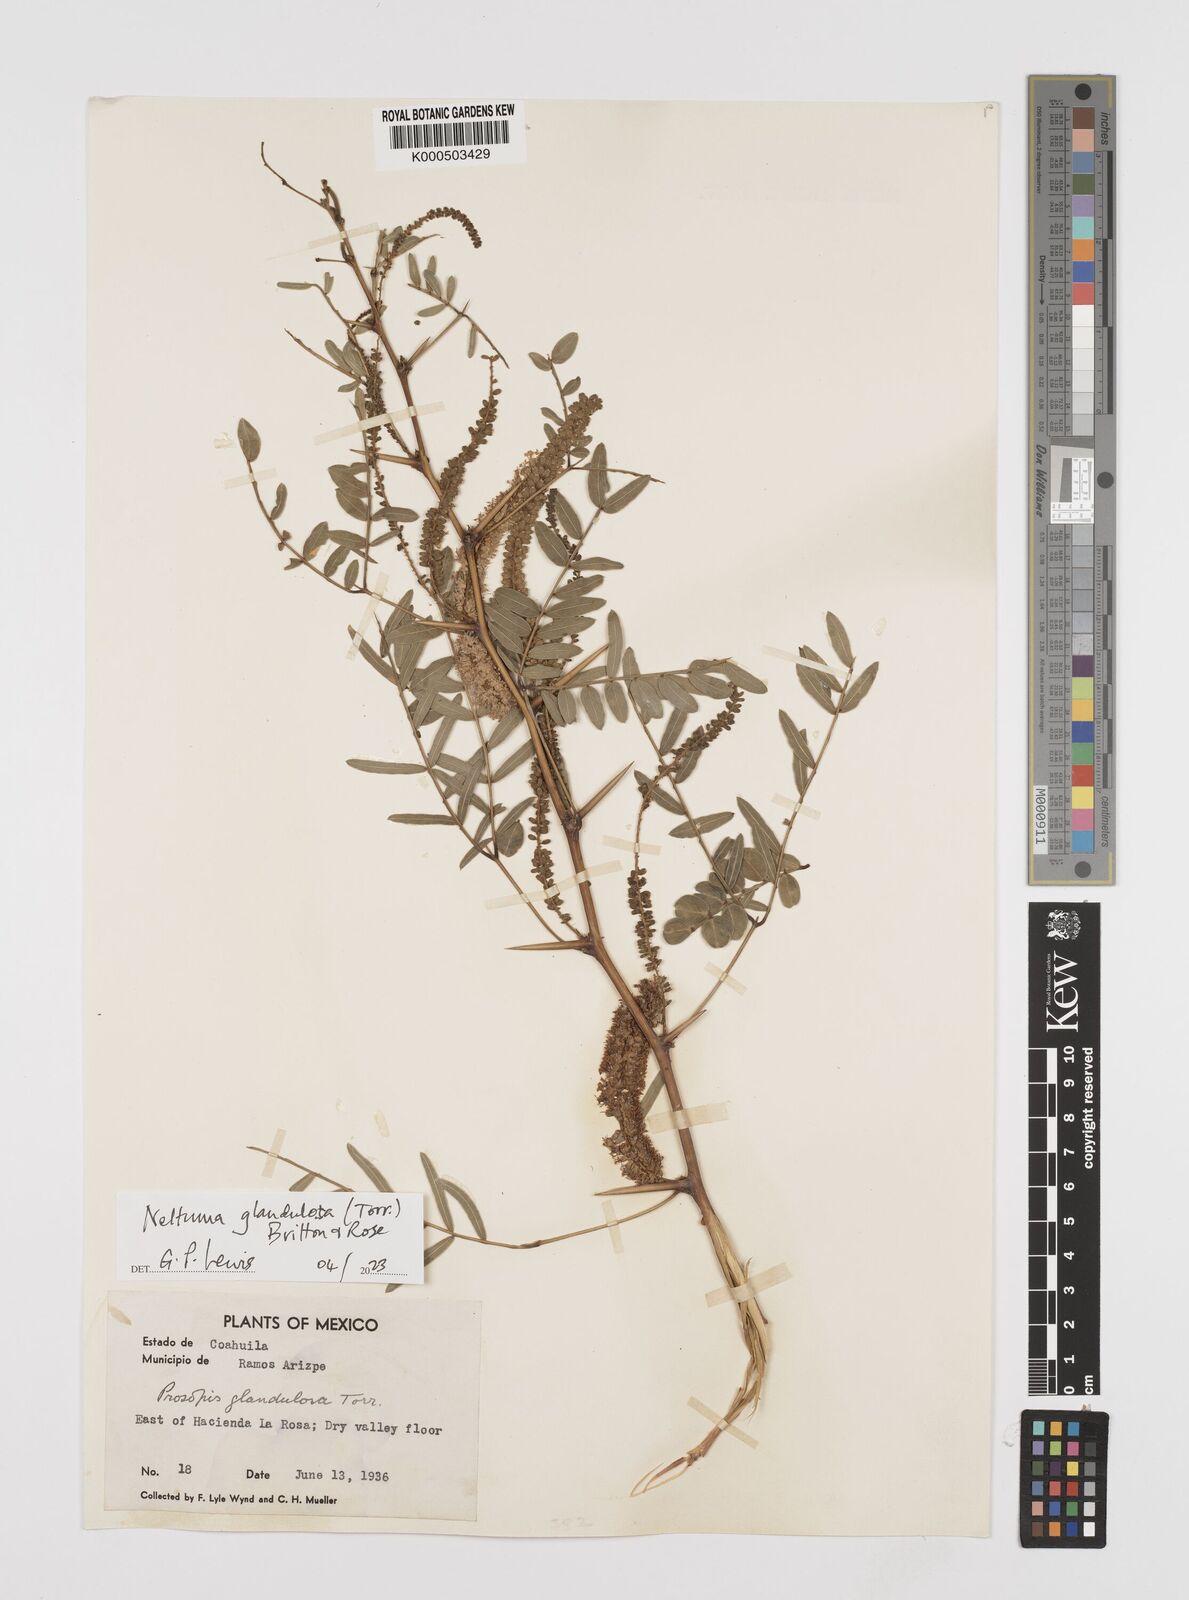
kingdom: Plantae
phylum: Tracheophyta
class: Magnoliopsida
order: Fabales
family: Fabaceae
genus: Prosopis
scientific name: Prosopis juliflora
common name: Mesquite
